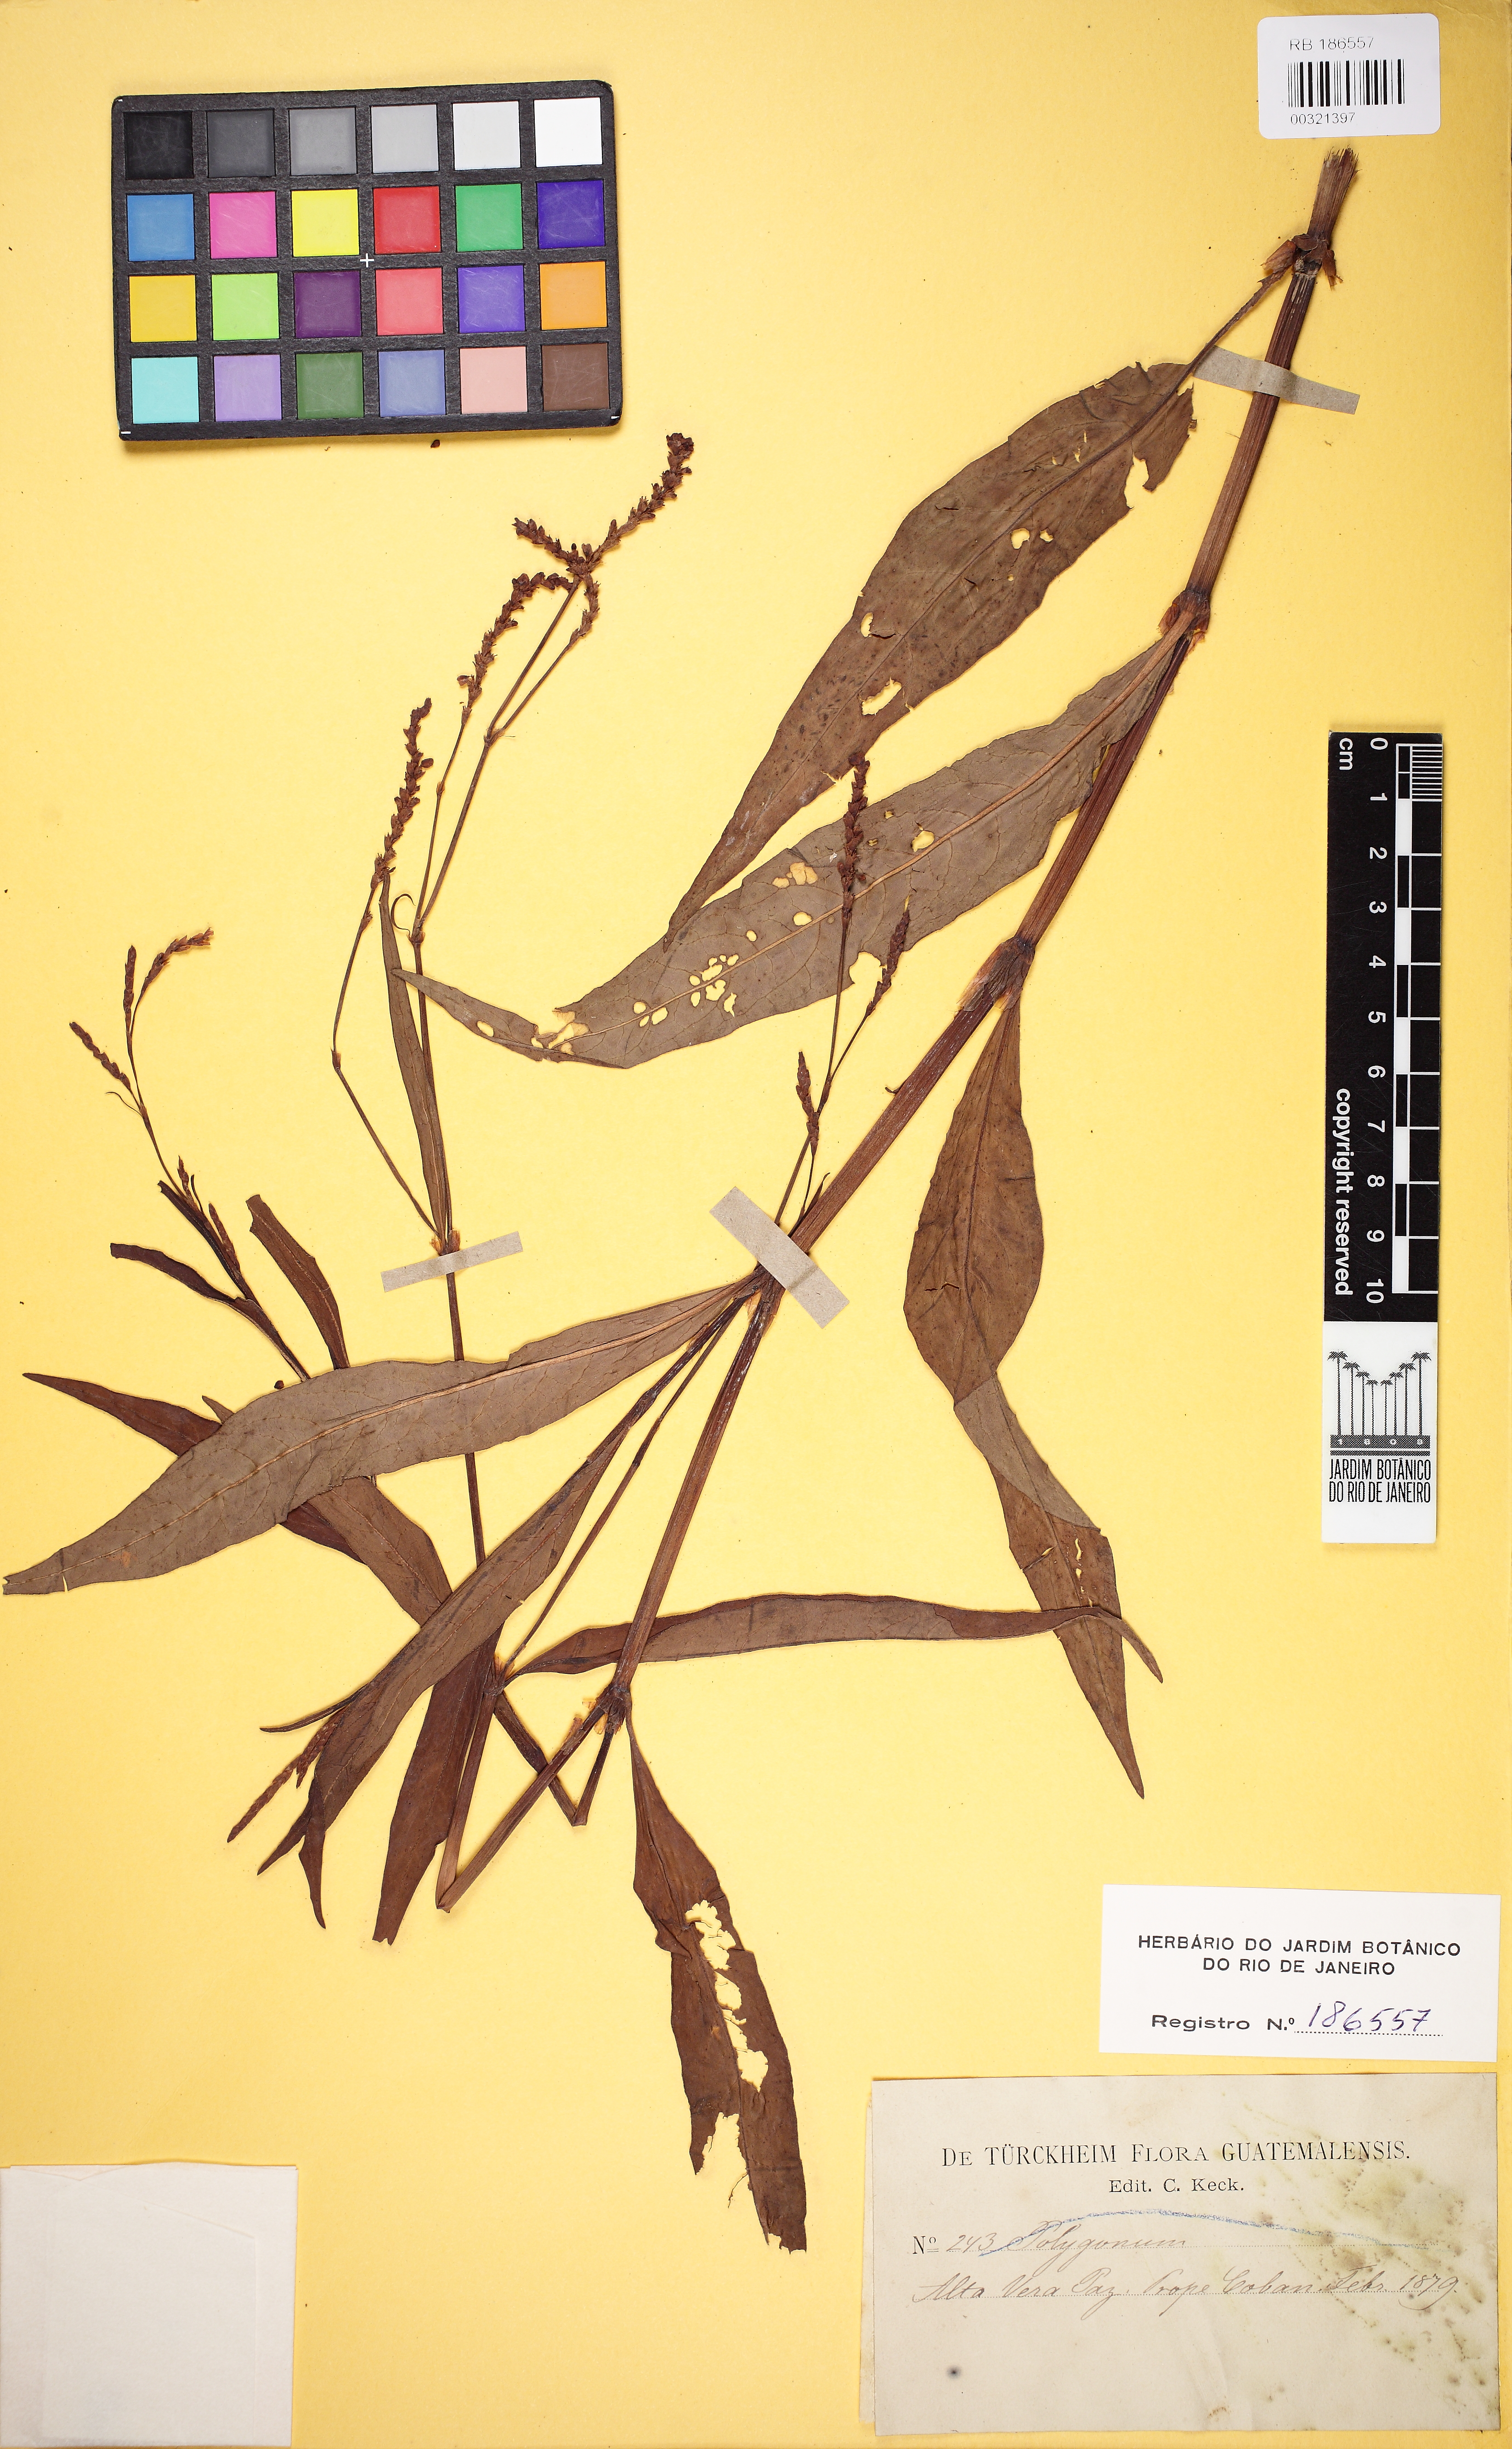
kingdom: Plantae
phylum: Tracheophyta
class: Magnoliopsida
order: Caryophyllales
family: Polygonaceae
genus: Polygonum
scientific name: Polygonum
